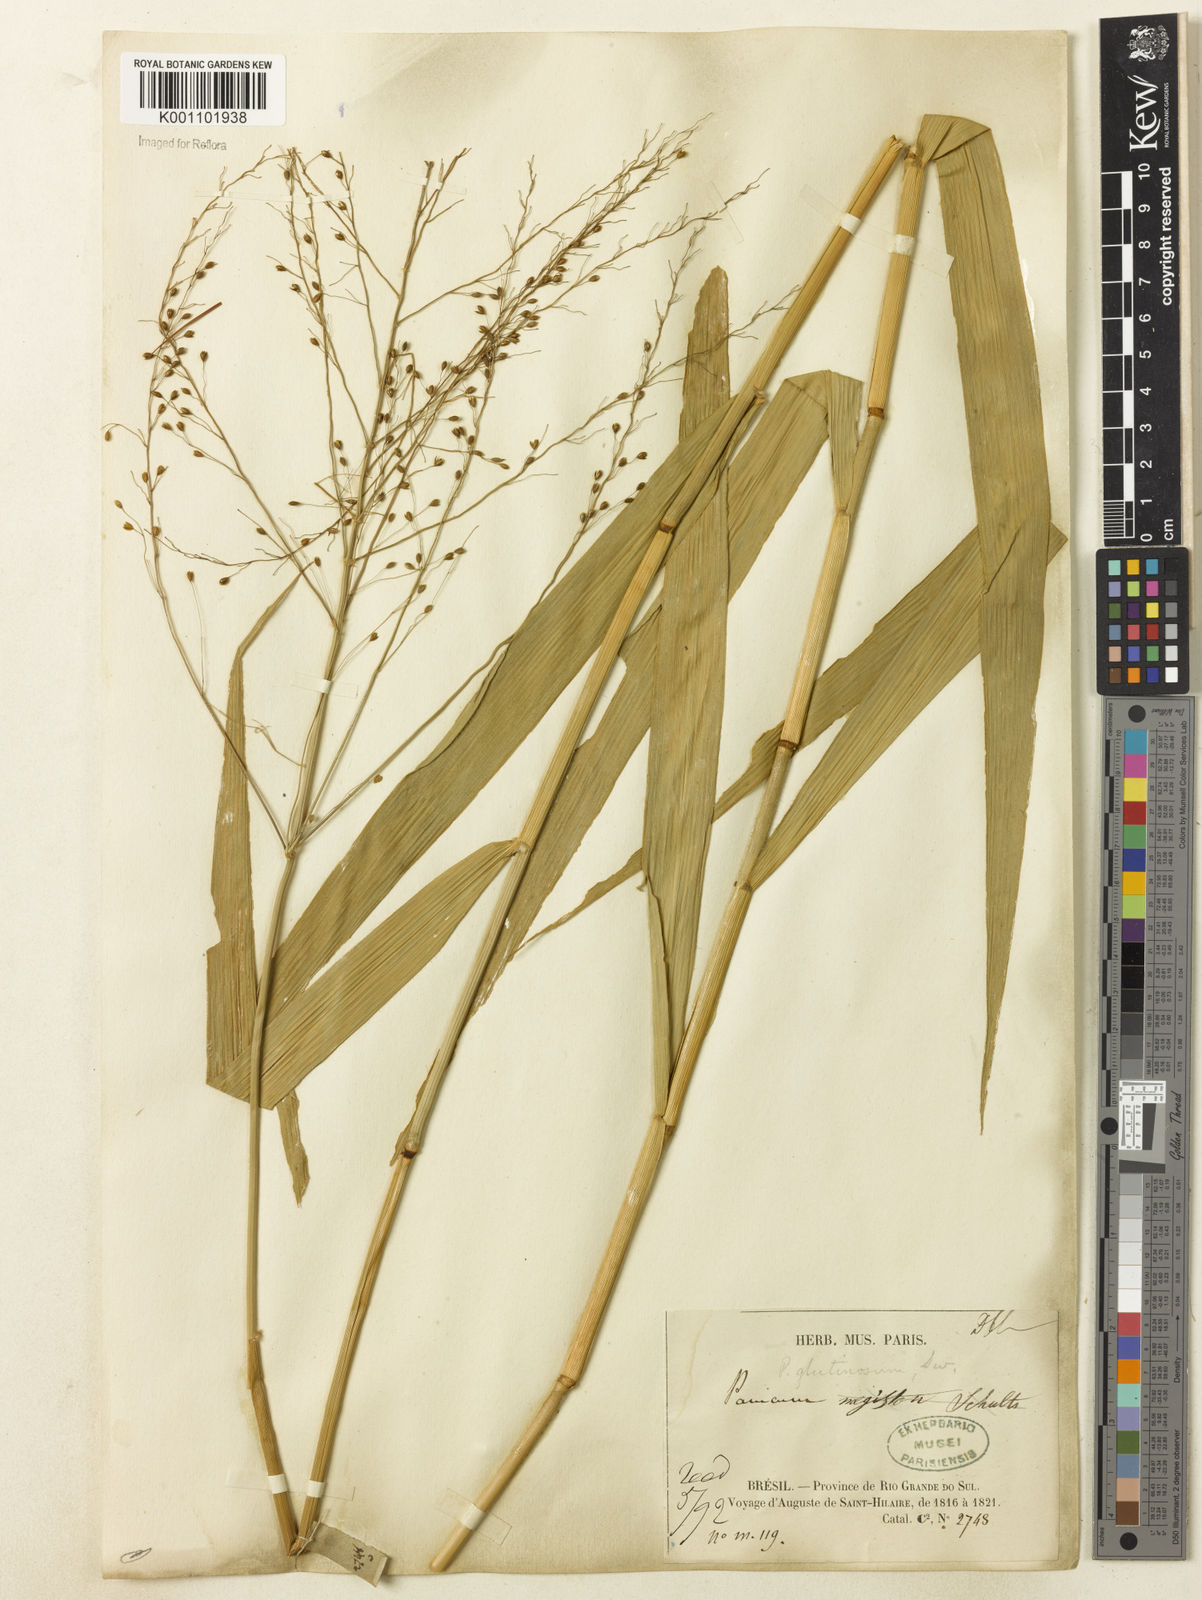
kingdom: Plantae
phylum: Tracheophyta
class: Liliopsida
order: Poales
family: Poaceae
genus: Homolepis
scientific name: Homolepis glutinosa
